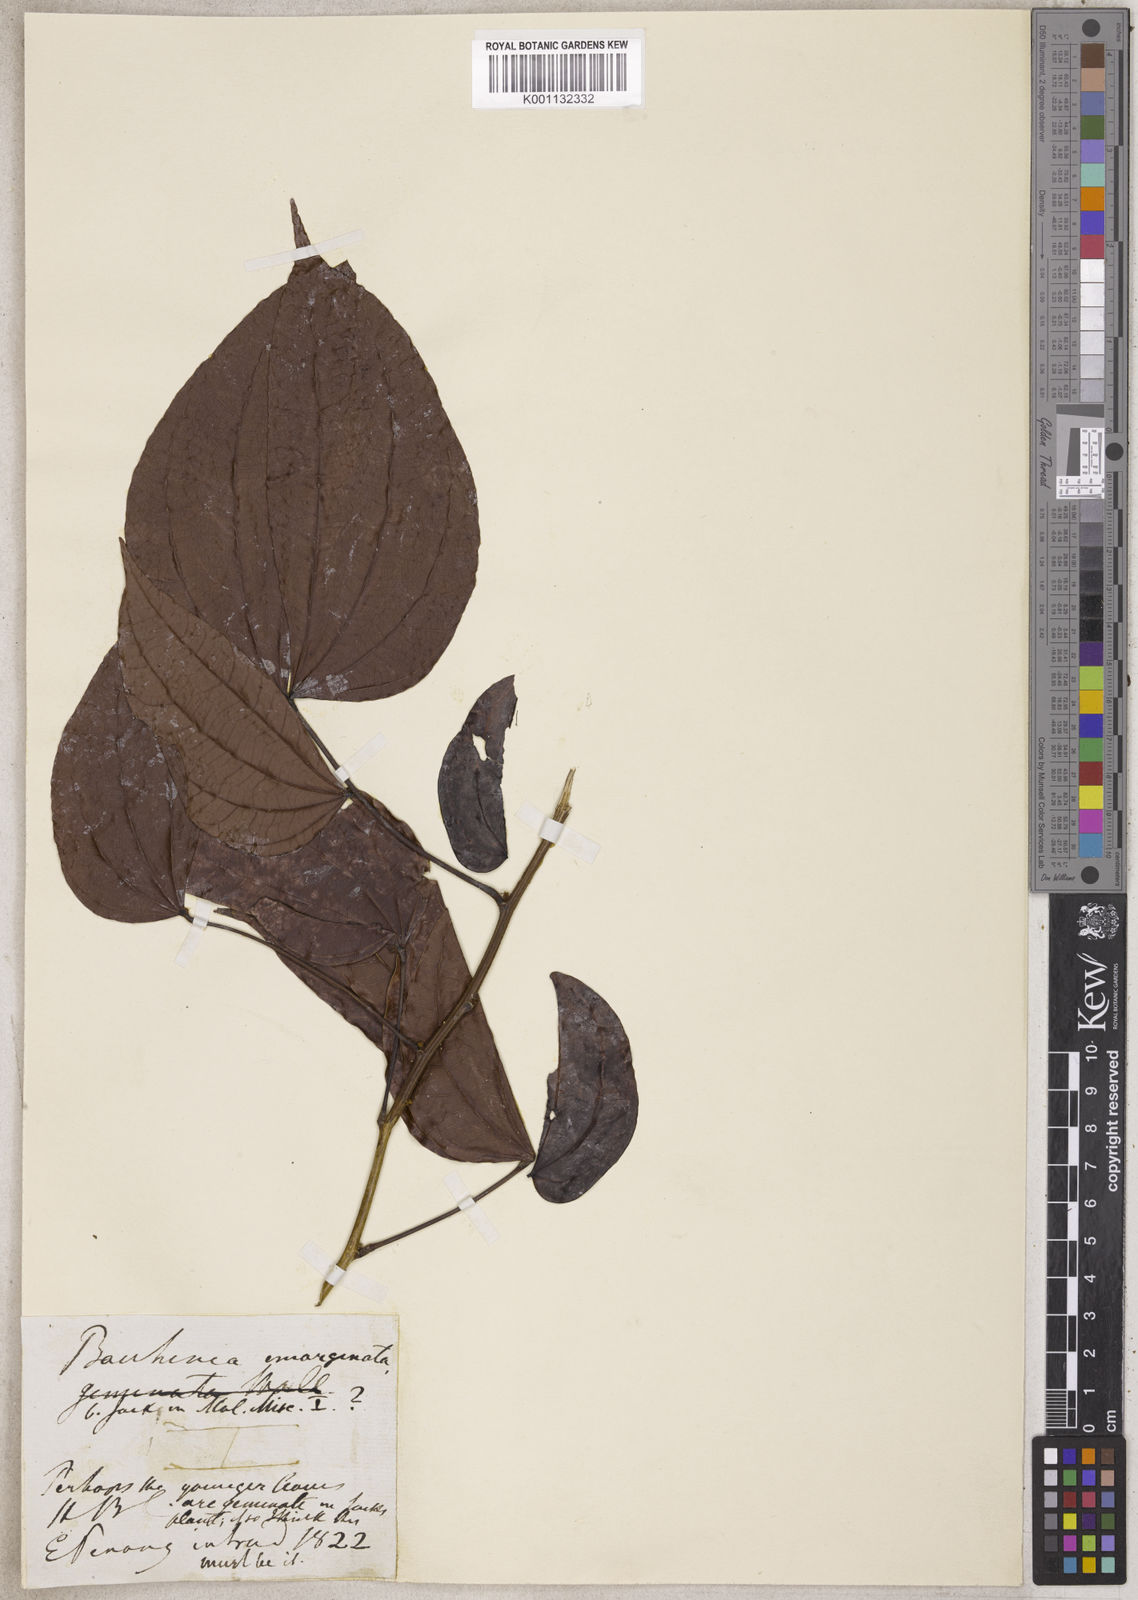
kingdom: Plantae
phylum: Tracheophyta
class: Magnoliopsida
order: Fabales
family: Fabaceae
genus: Bauhinia
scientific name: Bauhinia
